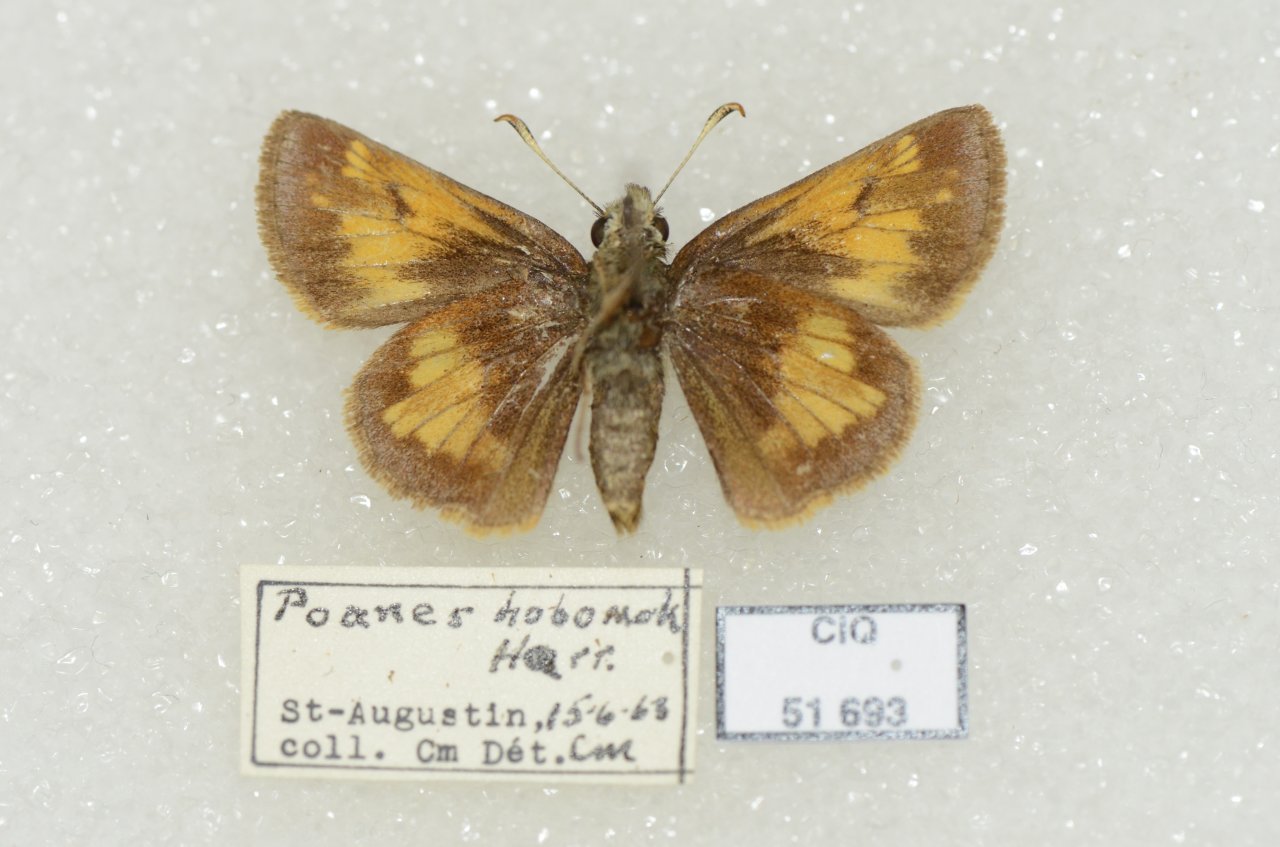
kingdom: Animalia
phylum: Arthropoda
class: Insecta
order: Lepidoptera
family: Hesperiidae
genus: Lon
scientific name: Lon hobomok
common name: Hobomok Skipper
